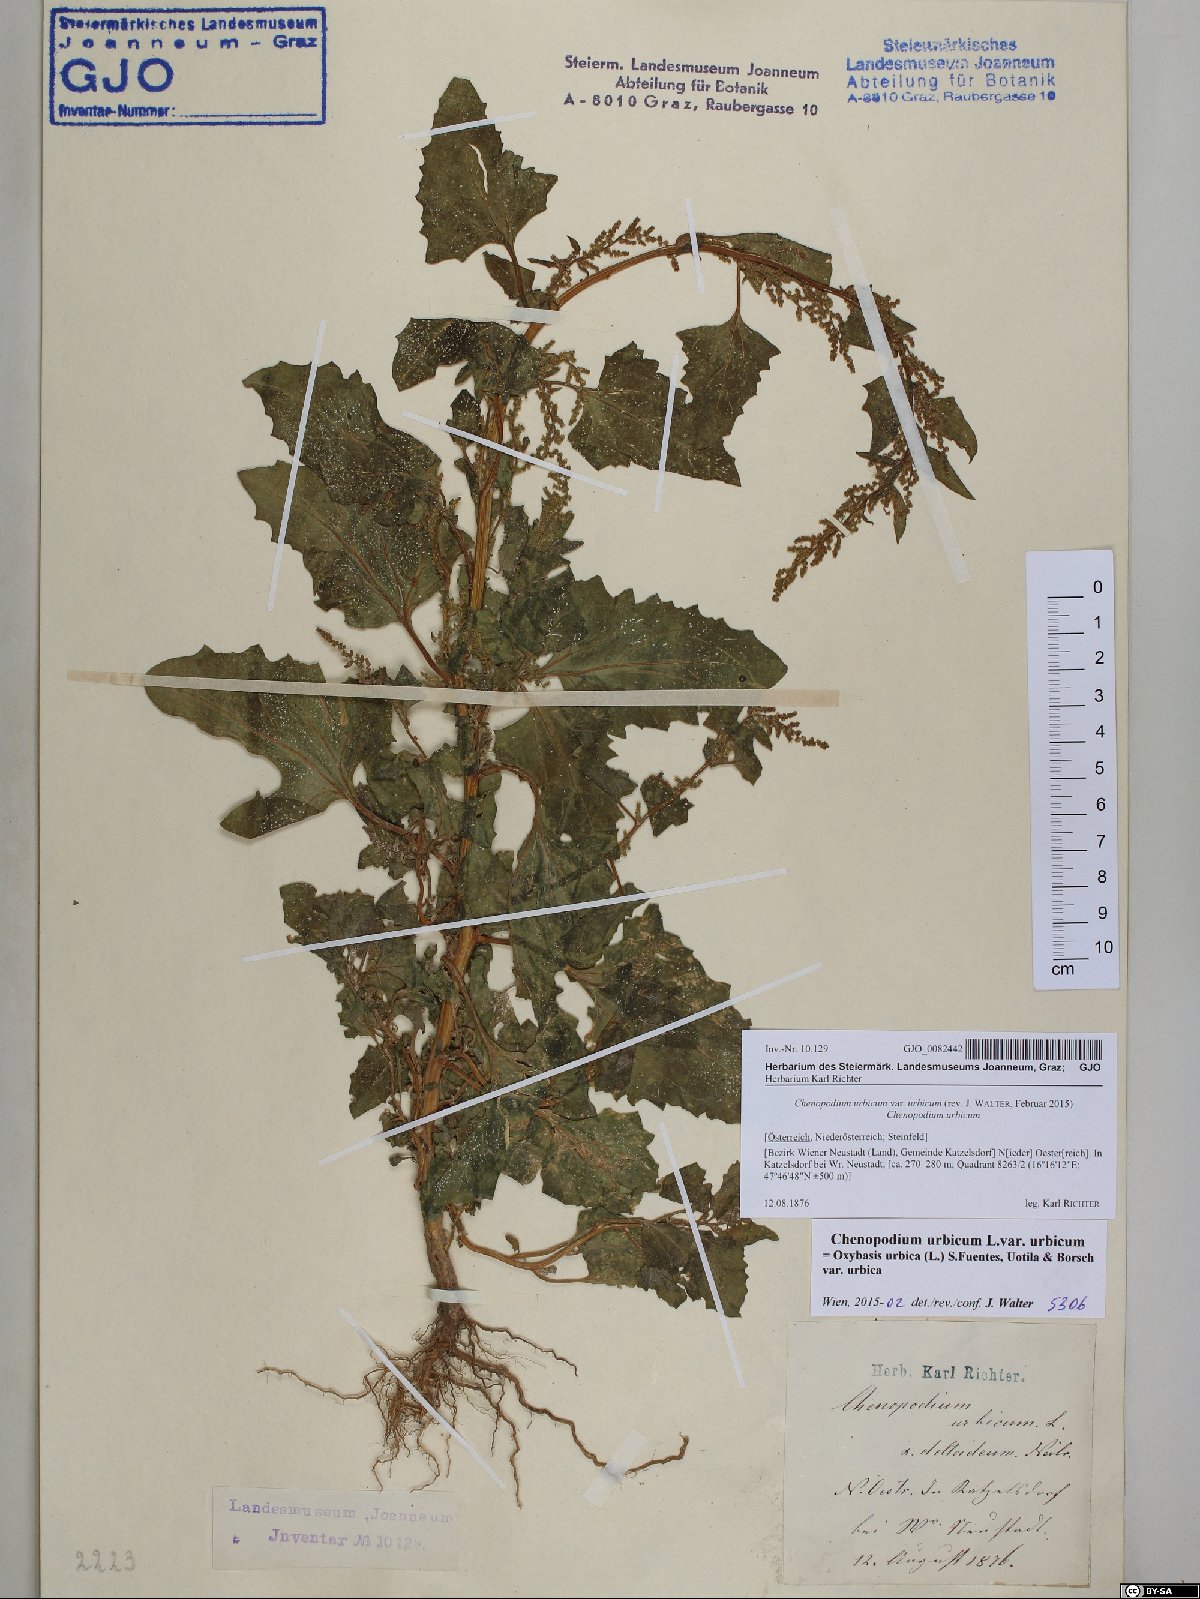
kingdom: Plantae
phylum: Tracheophyta
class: Magnoliopsida
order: Caryophyllales
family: Amaranthaceae
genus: Oxybasis
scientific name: Oxybasis urbica
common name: City goosefoot
